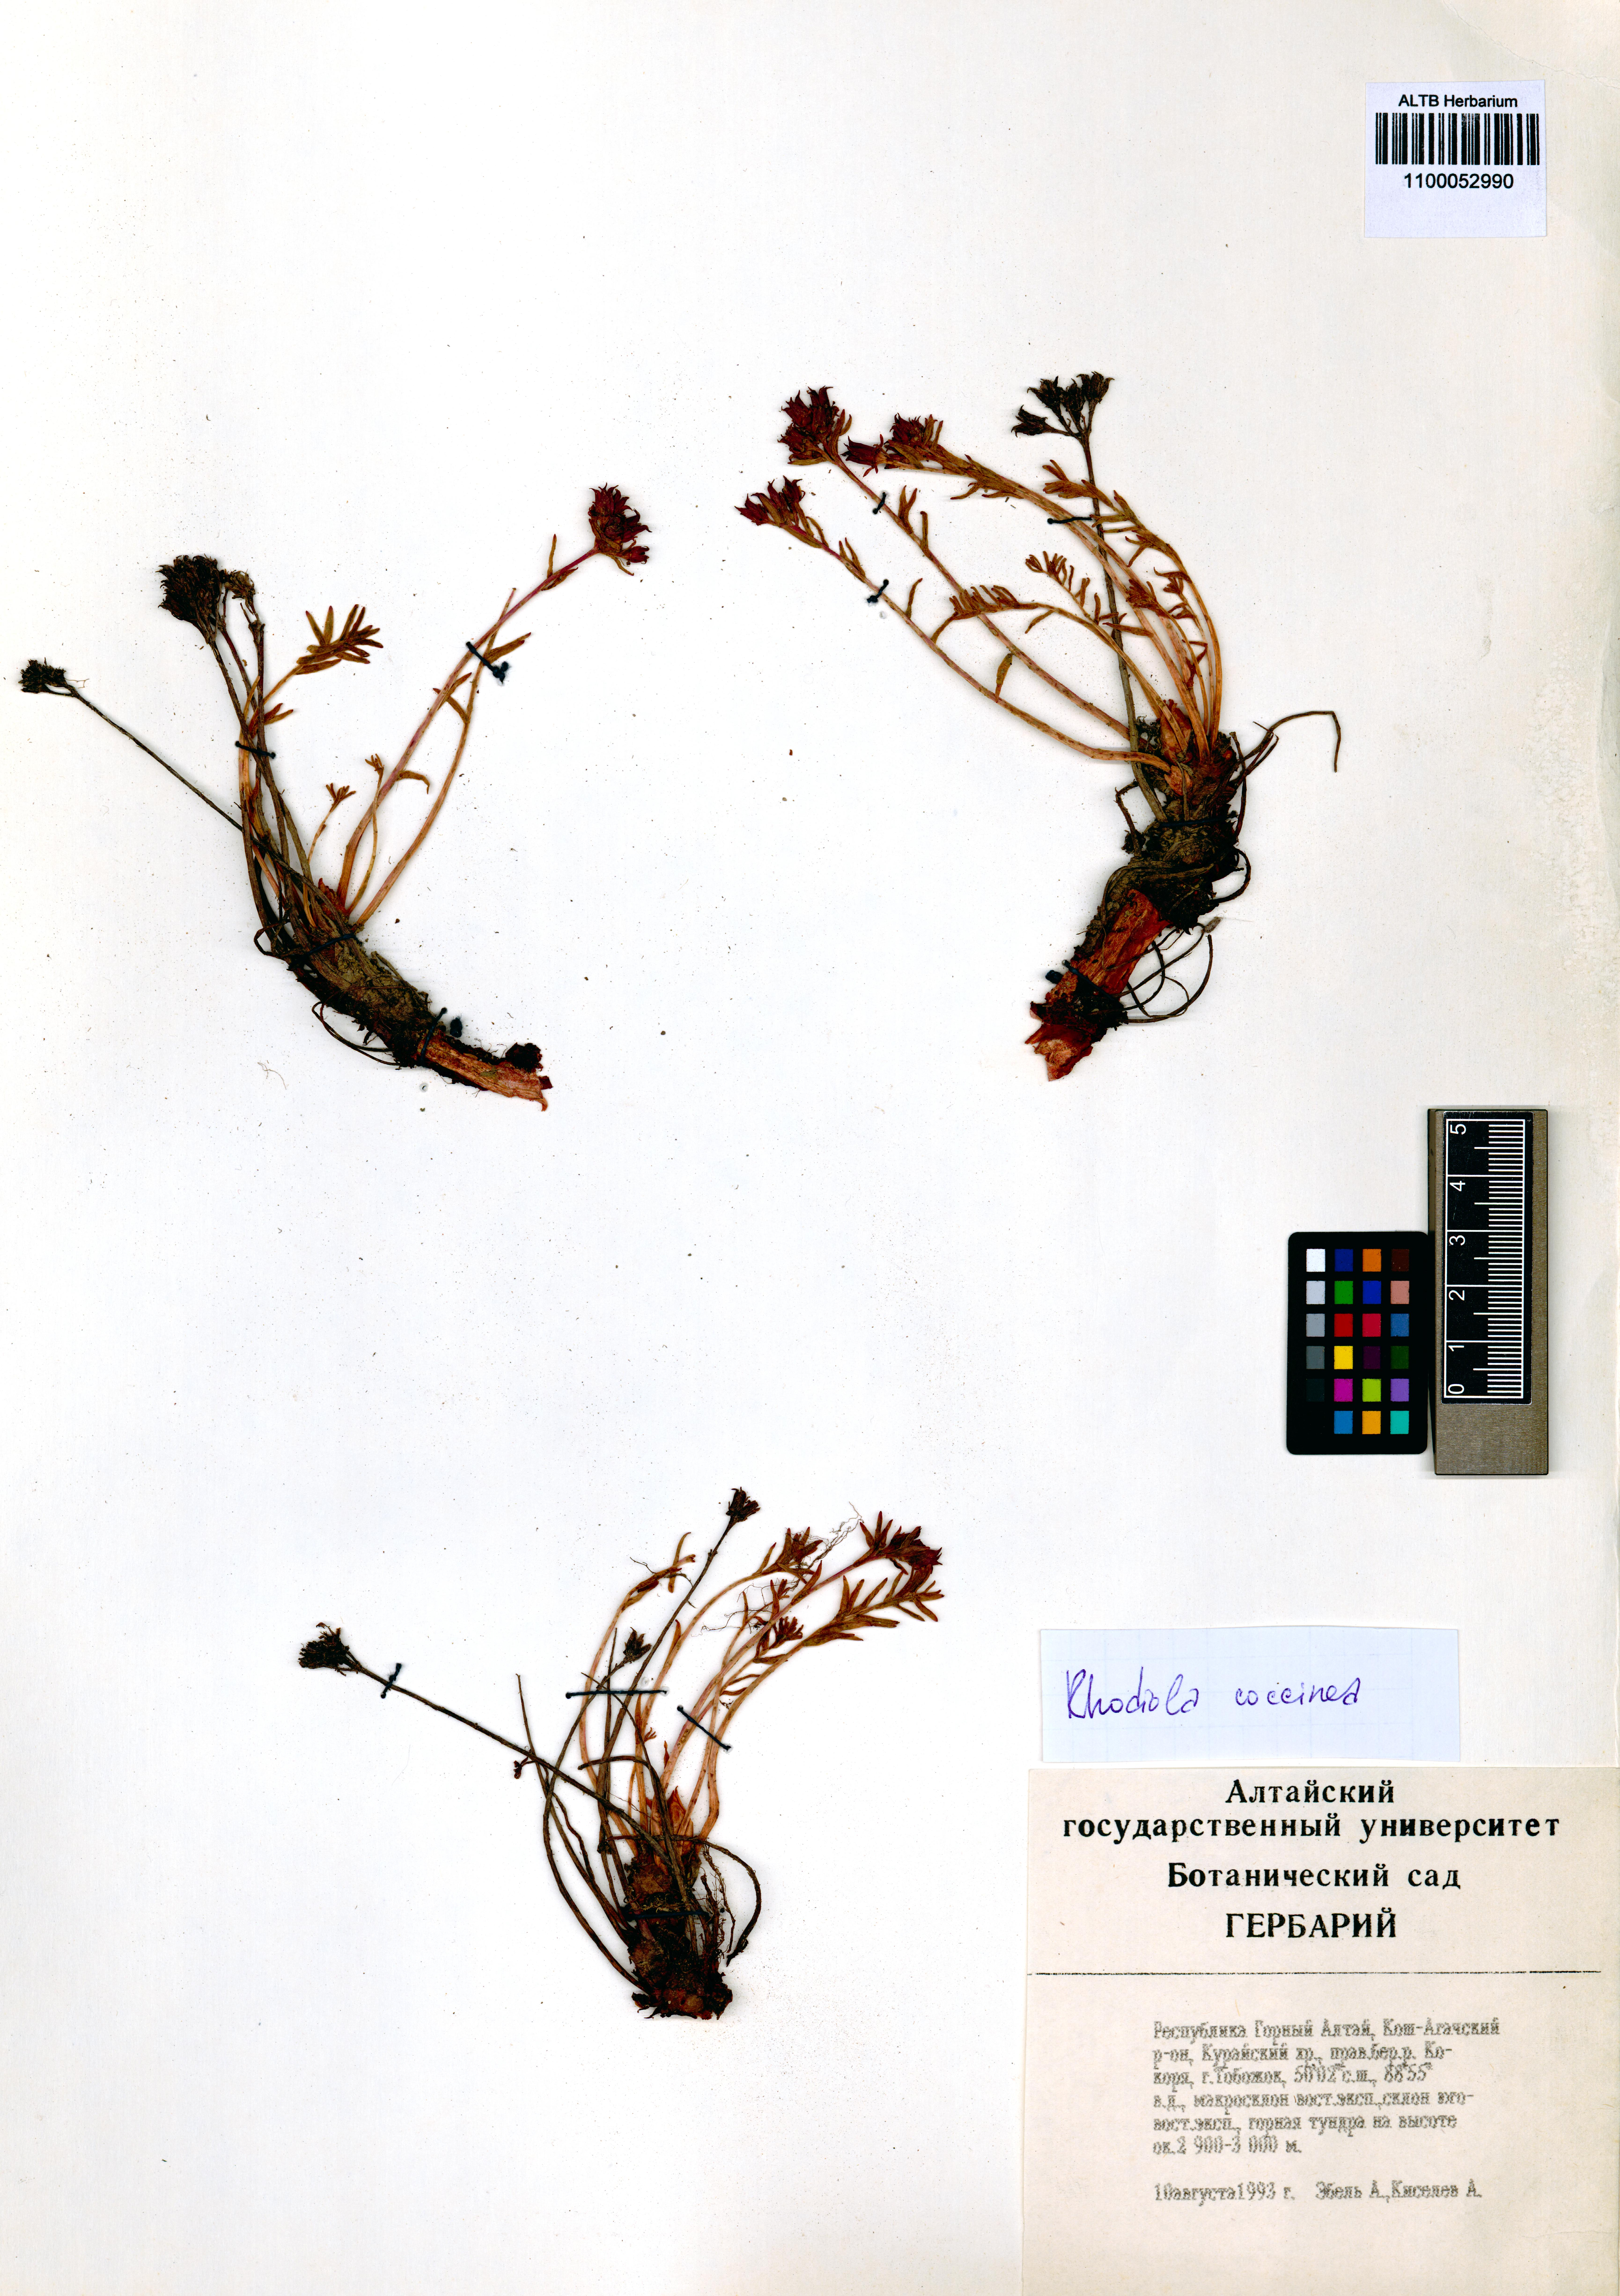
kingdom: Plantae
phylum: Tracheophyta
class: Magnoliopsida
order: Saxifragales
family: Crassulaceae
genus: Rhodiola
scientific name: Rhodiola coccinea
